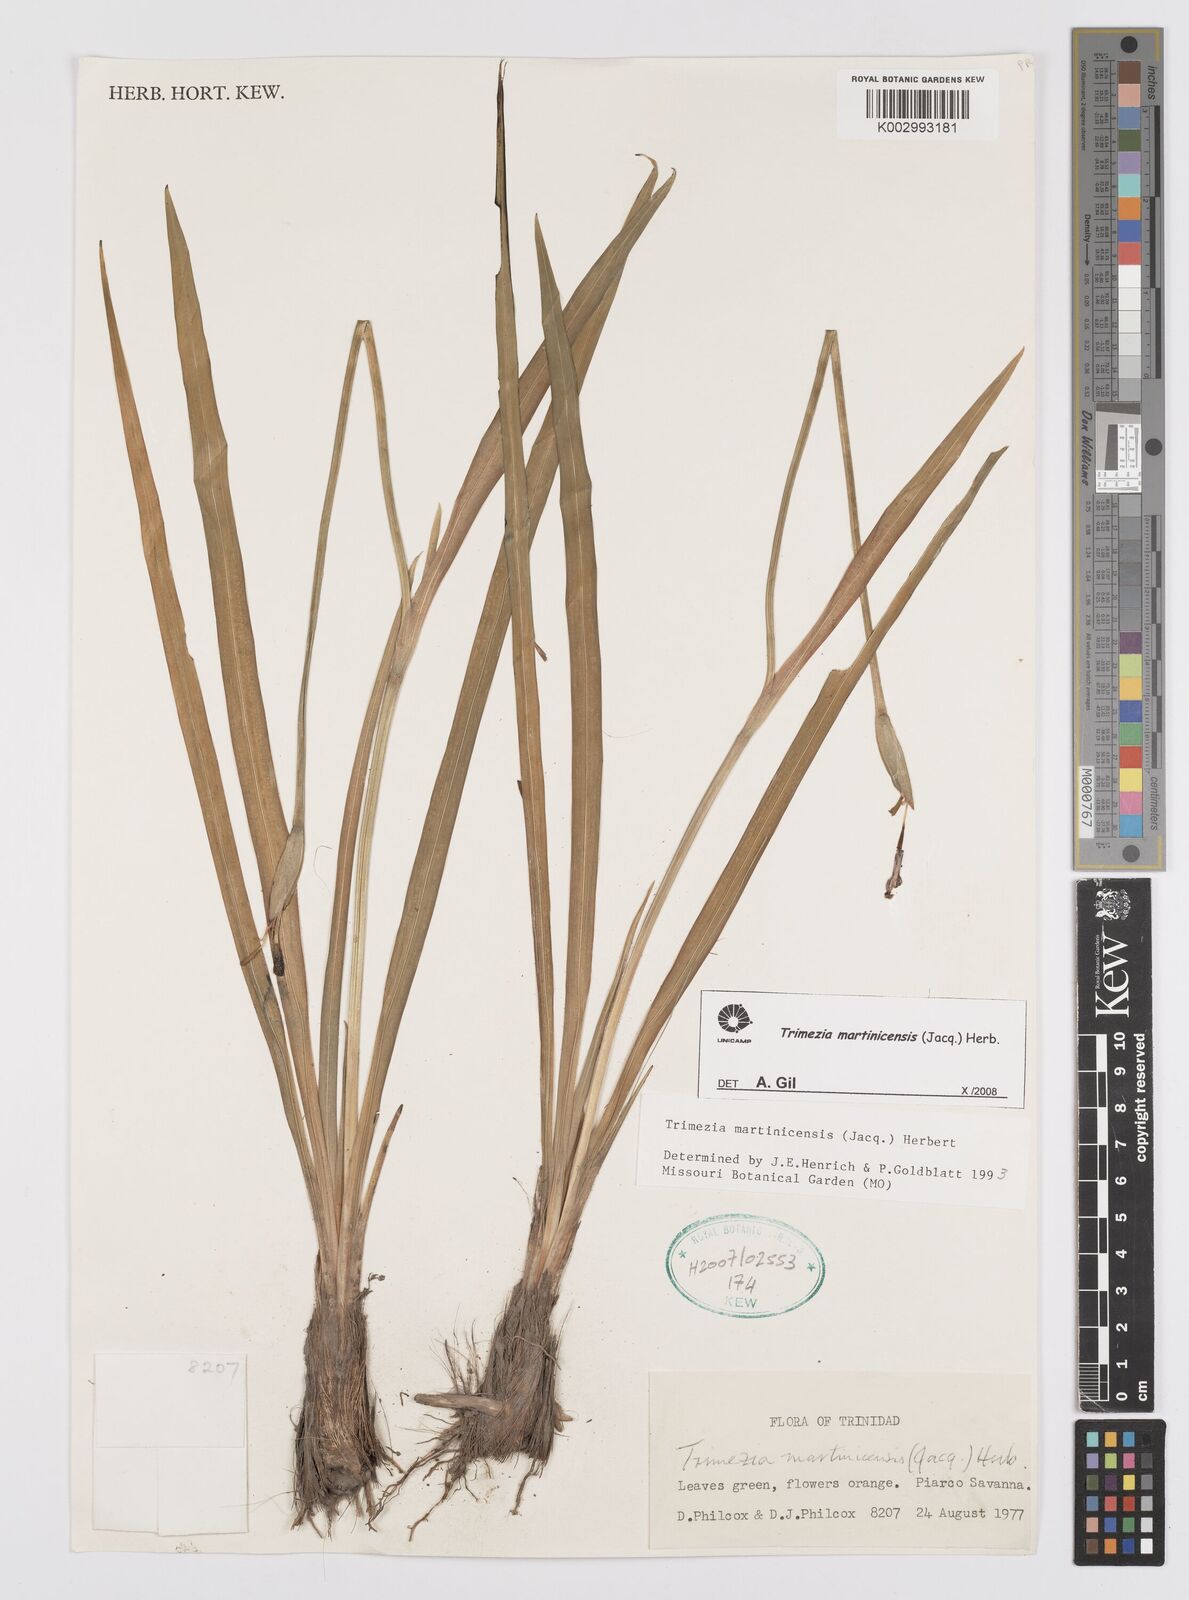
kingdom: Plantae
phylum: Tracheophyta
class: Liliopsida
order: Asparagales
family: Iridaceae
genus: Trimezia
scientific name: Trimezia martinicensis
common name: Martinique trimezia
